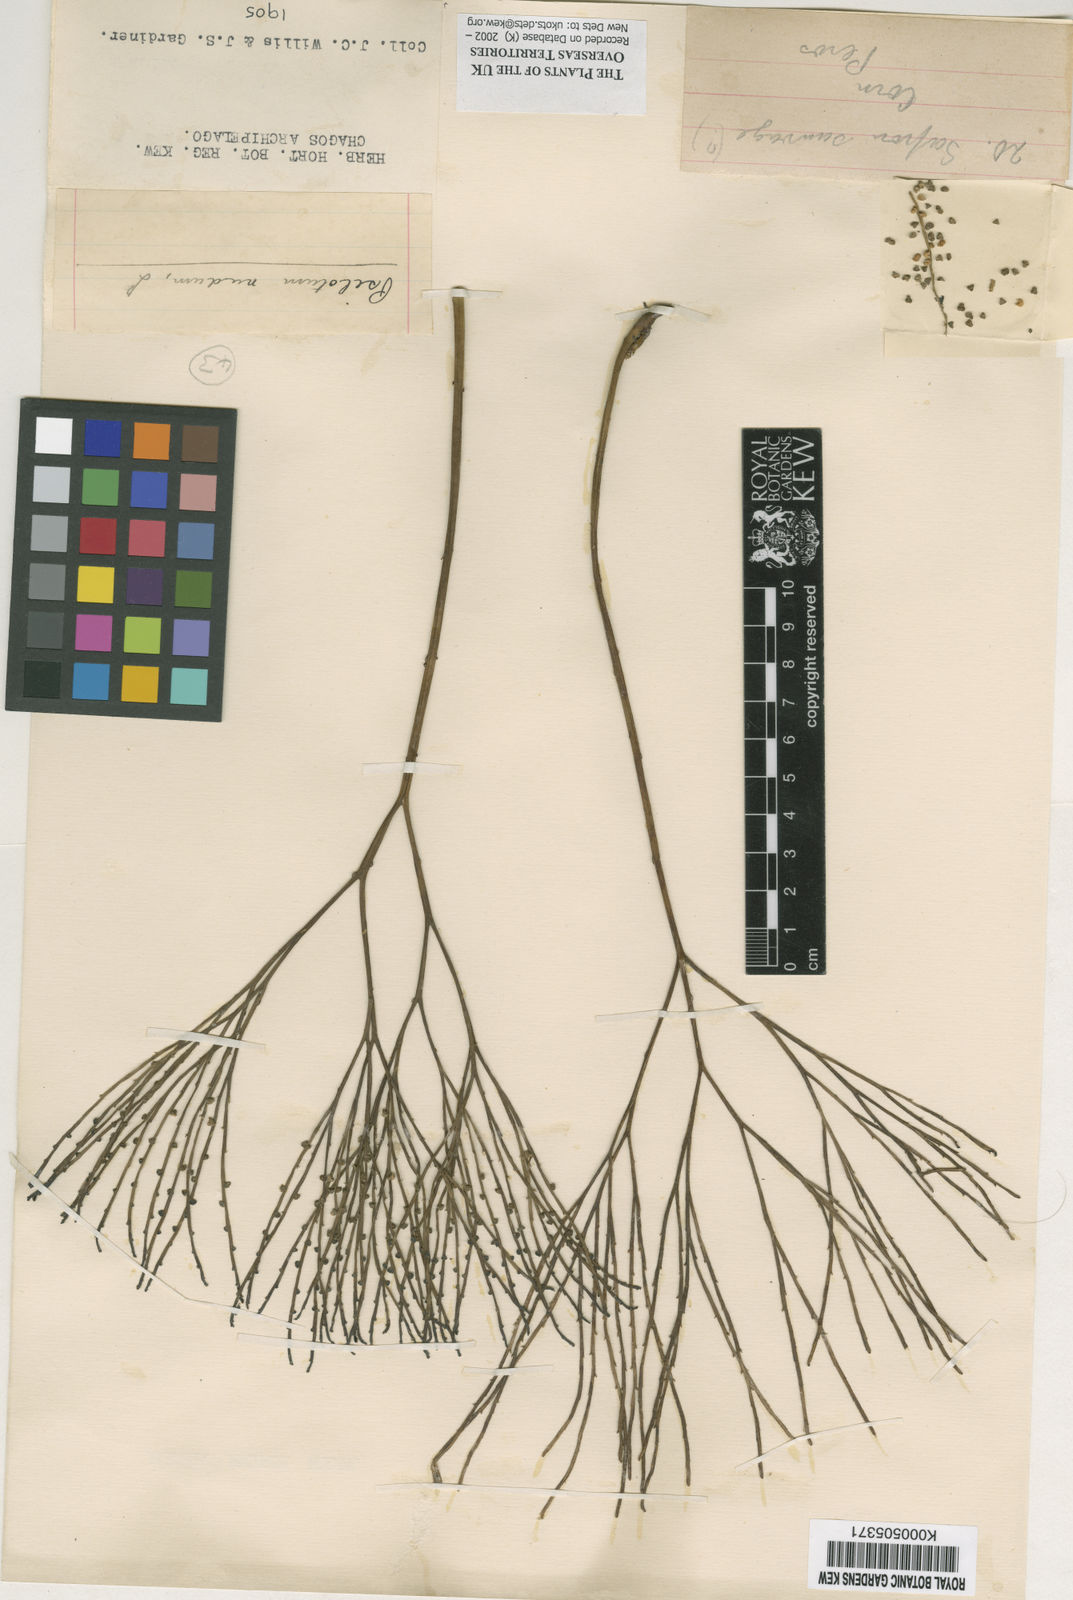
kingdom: Plantae
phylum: Tracheophyta
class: Polypodiopsida
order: Psilotales
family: Psilotaceae
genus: Psilotum
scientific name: Psilotum
